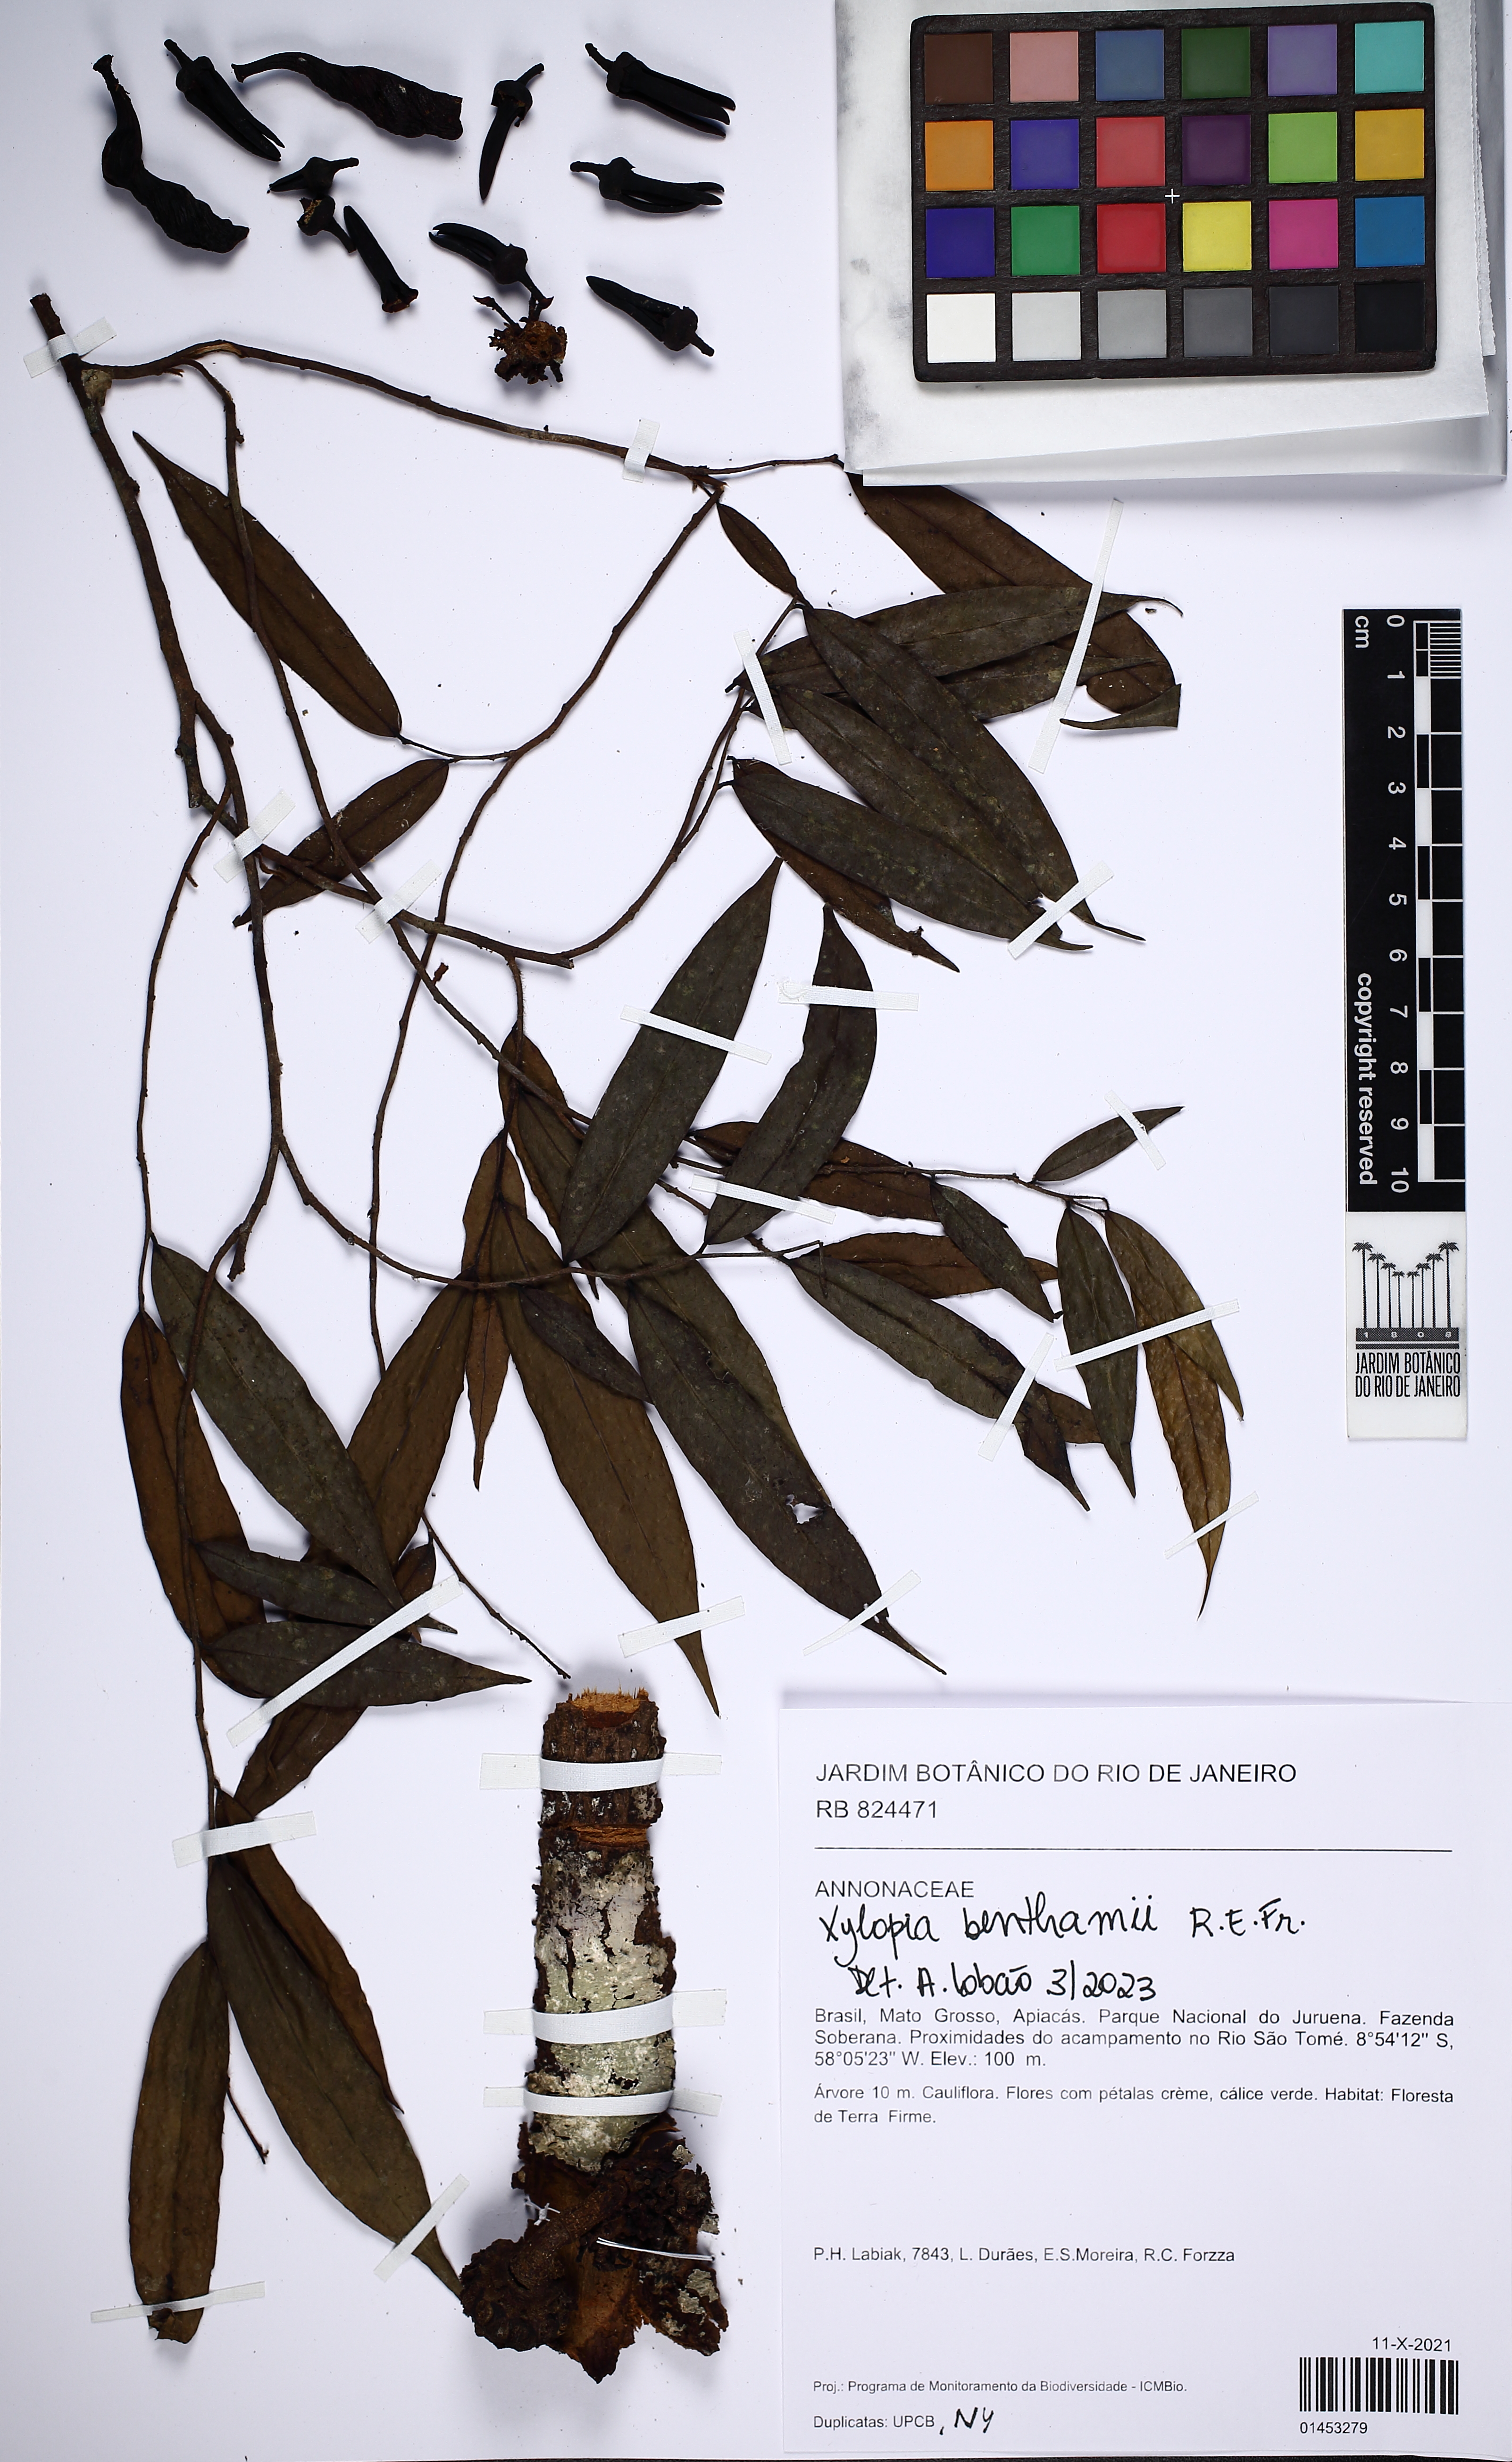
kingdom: Plantae
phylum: Tracheophyta
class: Magnoliopsida
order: Magnoliales
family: Annonaceae
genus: Xylopia
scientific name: Xylopia benthamii
